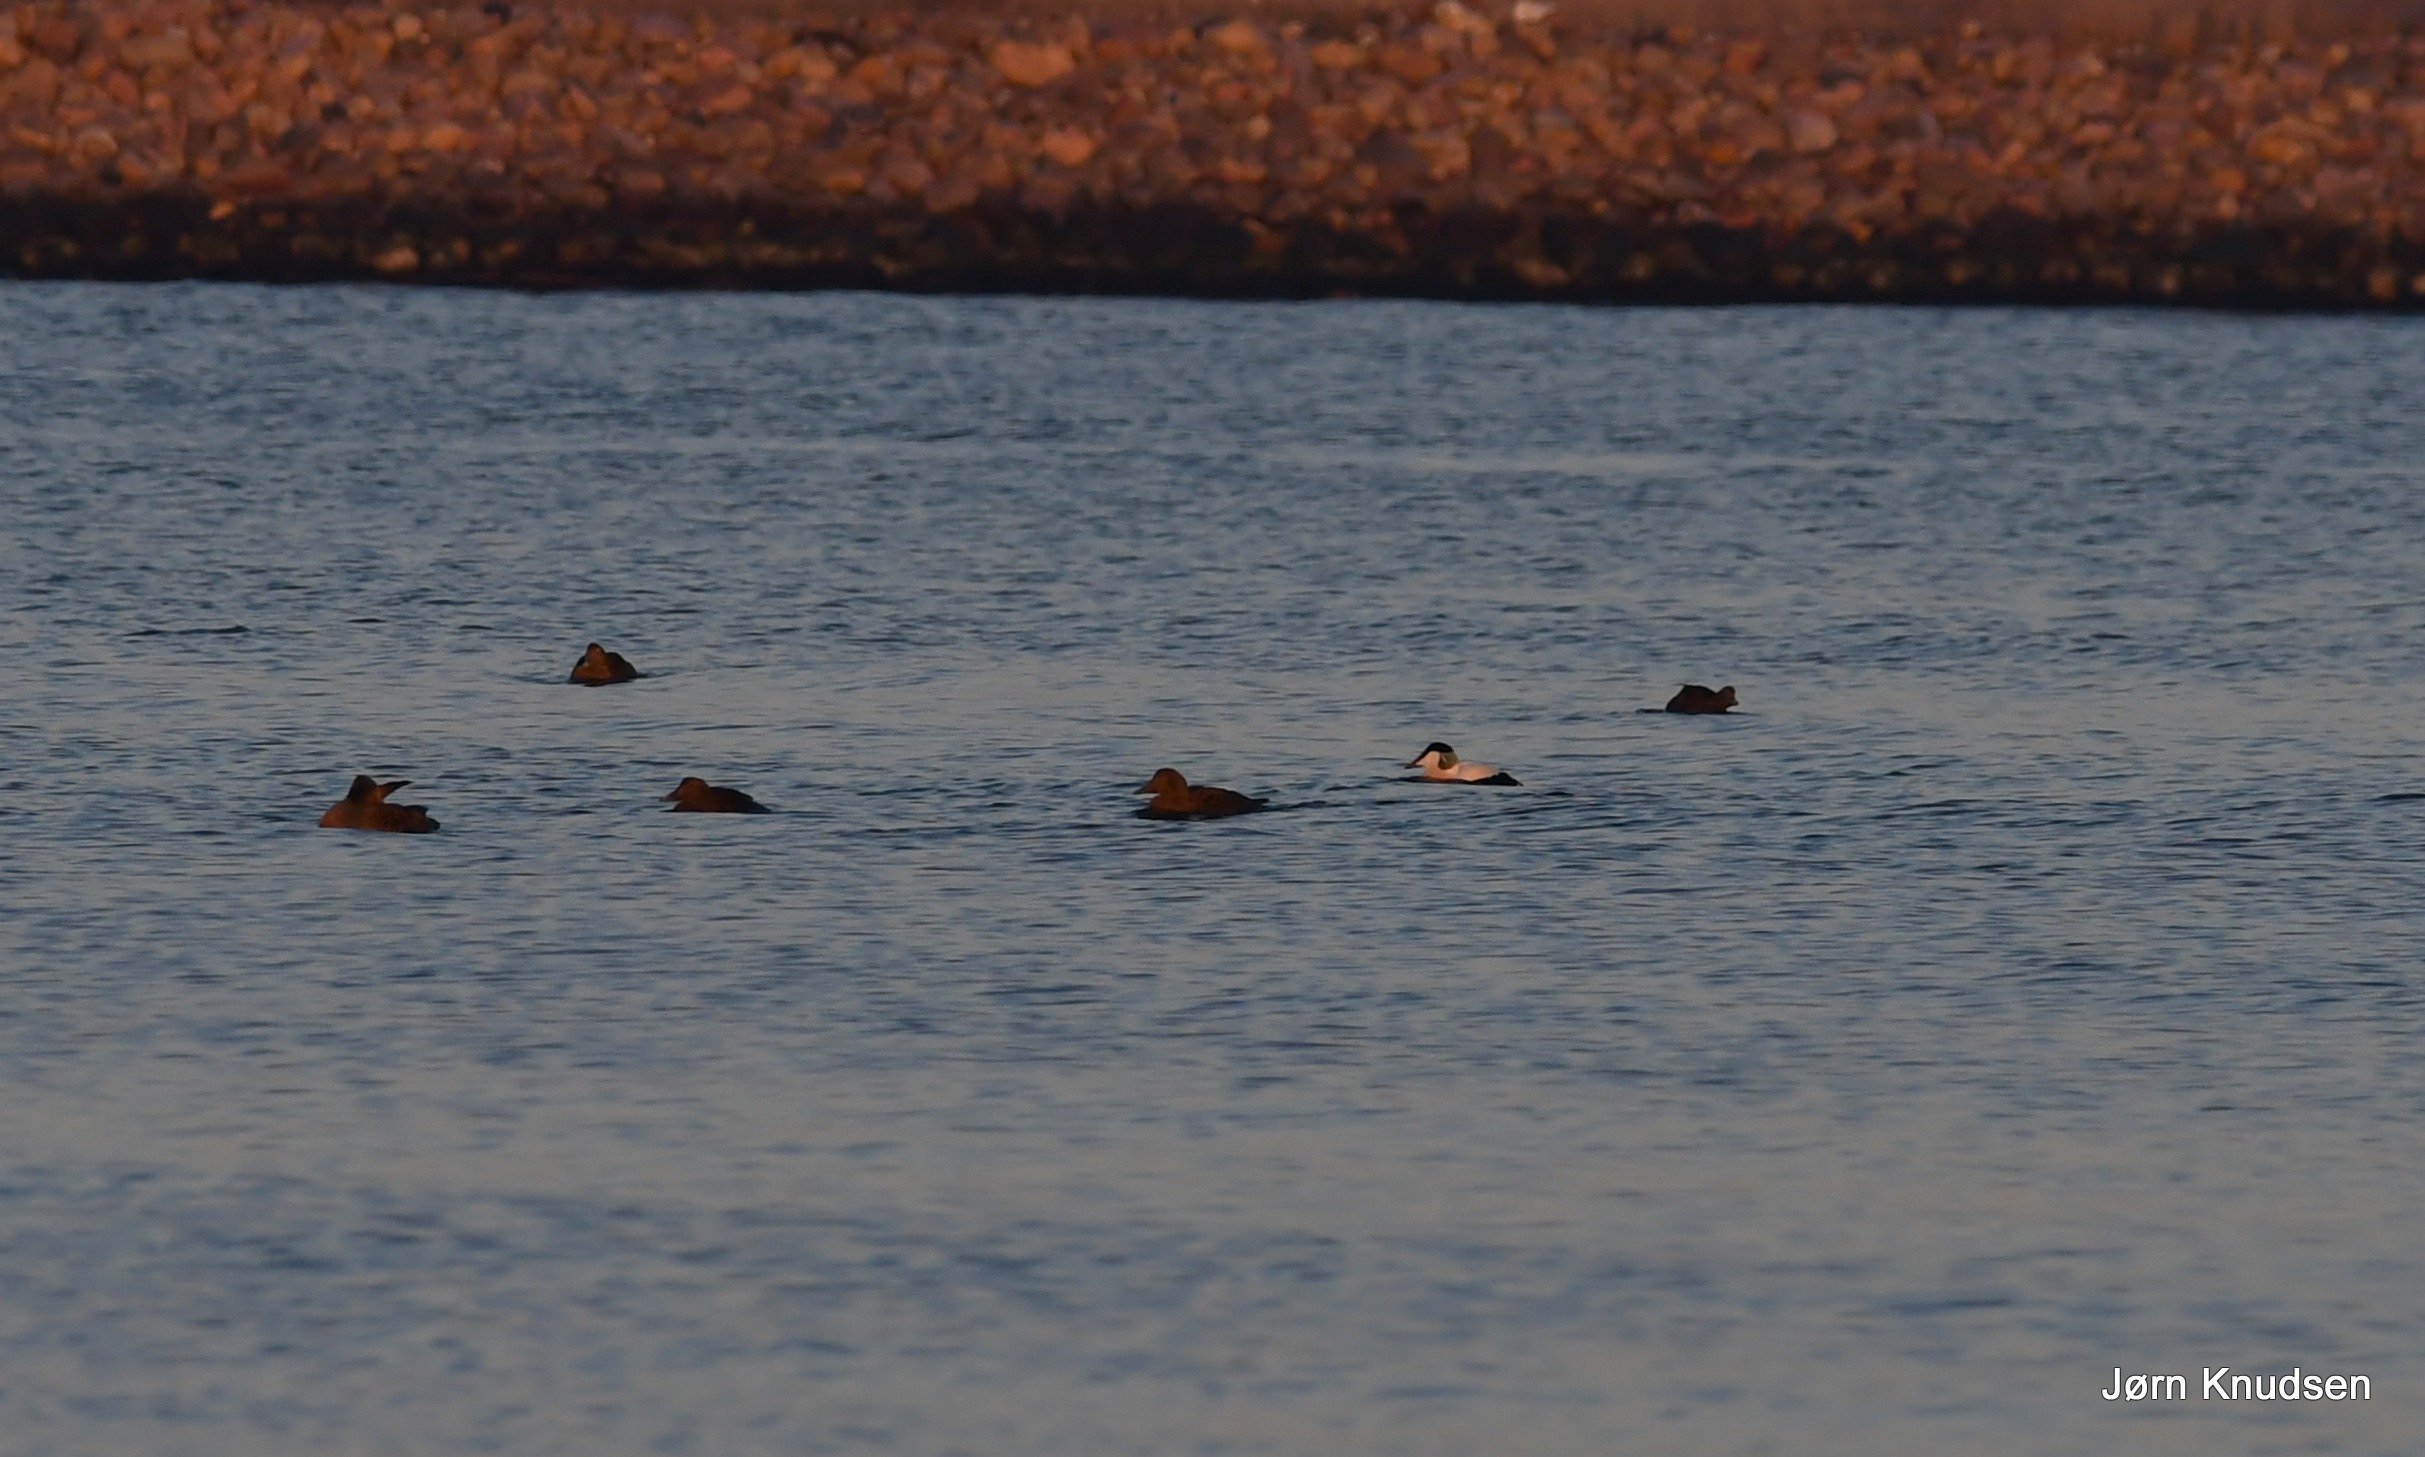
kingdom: Animalia
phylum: Chordata
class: Aves
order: Anseriformes
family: Anatidae
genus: Somateria
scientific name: Somateria mollissima
